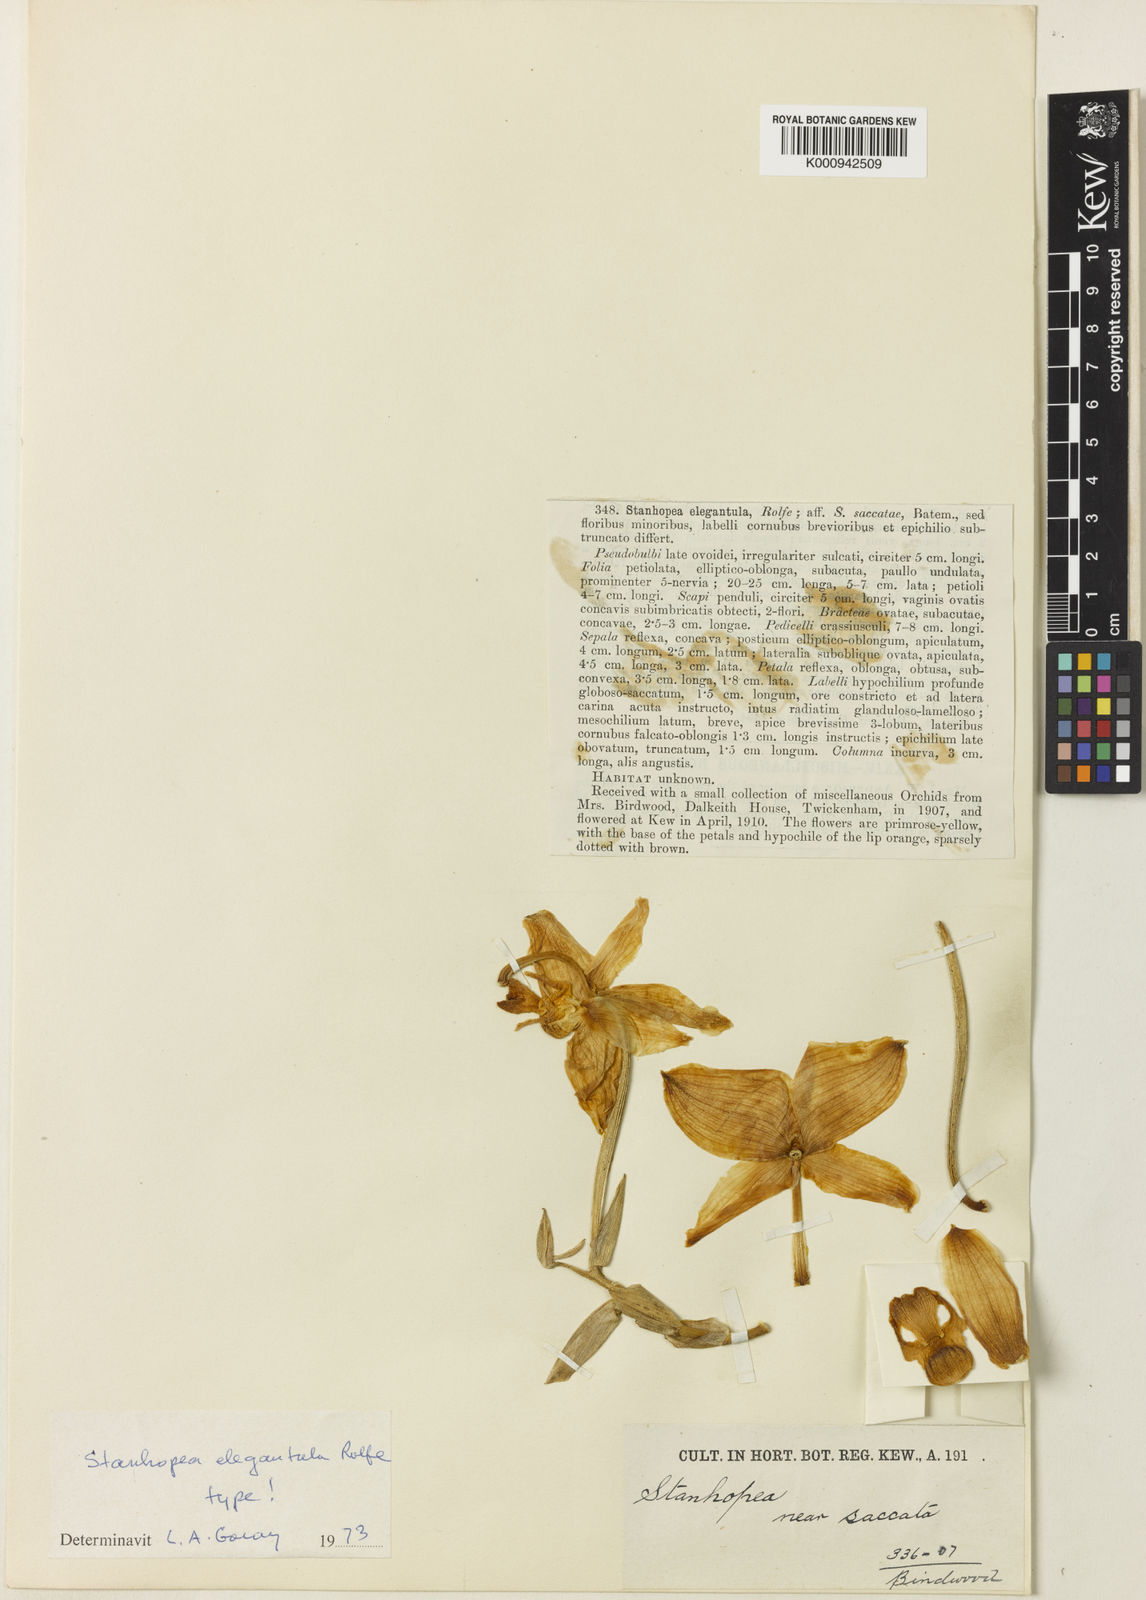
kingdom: Plantae
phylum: Tracheophyta
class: Liliopsida
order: Asparagales
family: Orchidaceae
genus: Stanhopea
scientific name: Stanhopea saccata
